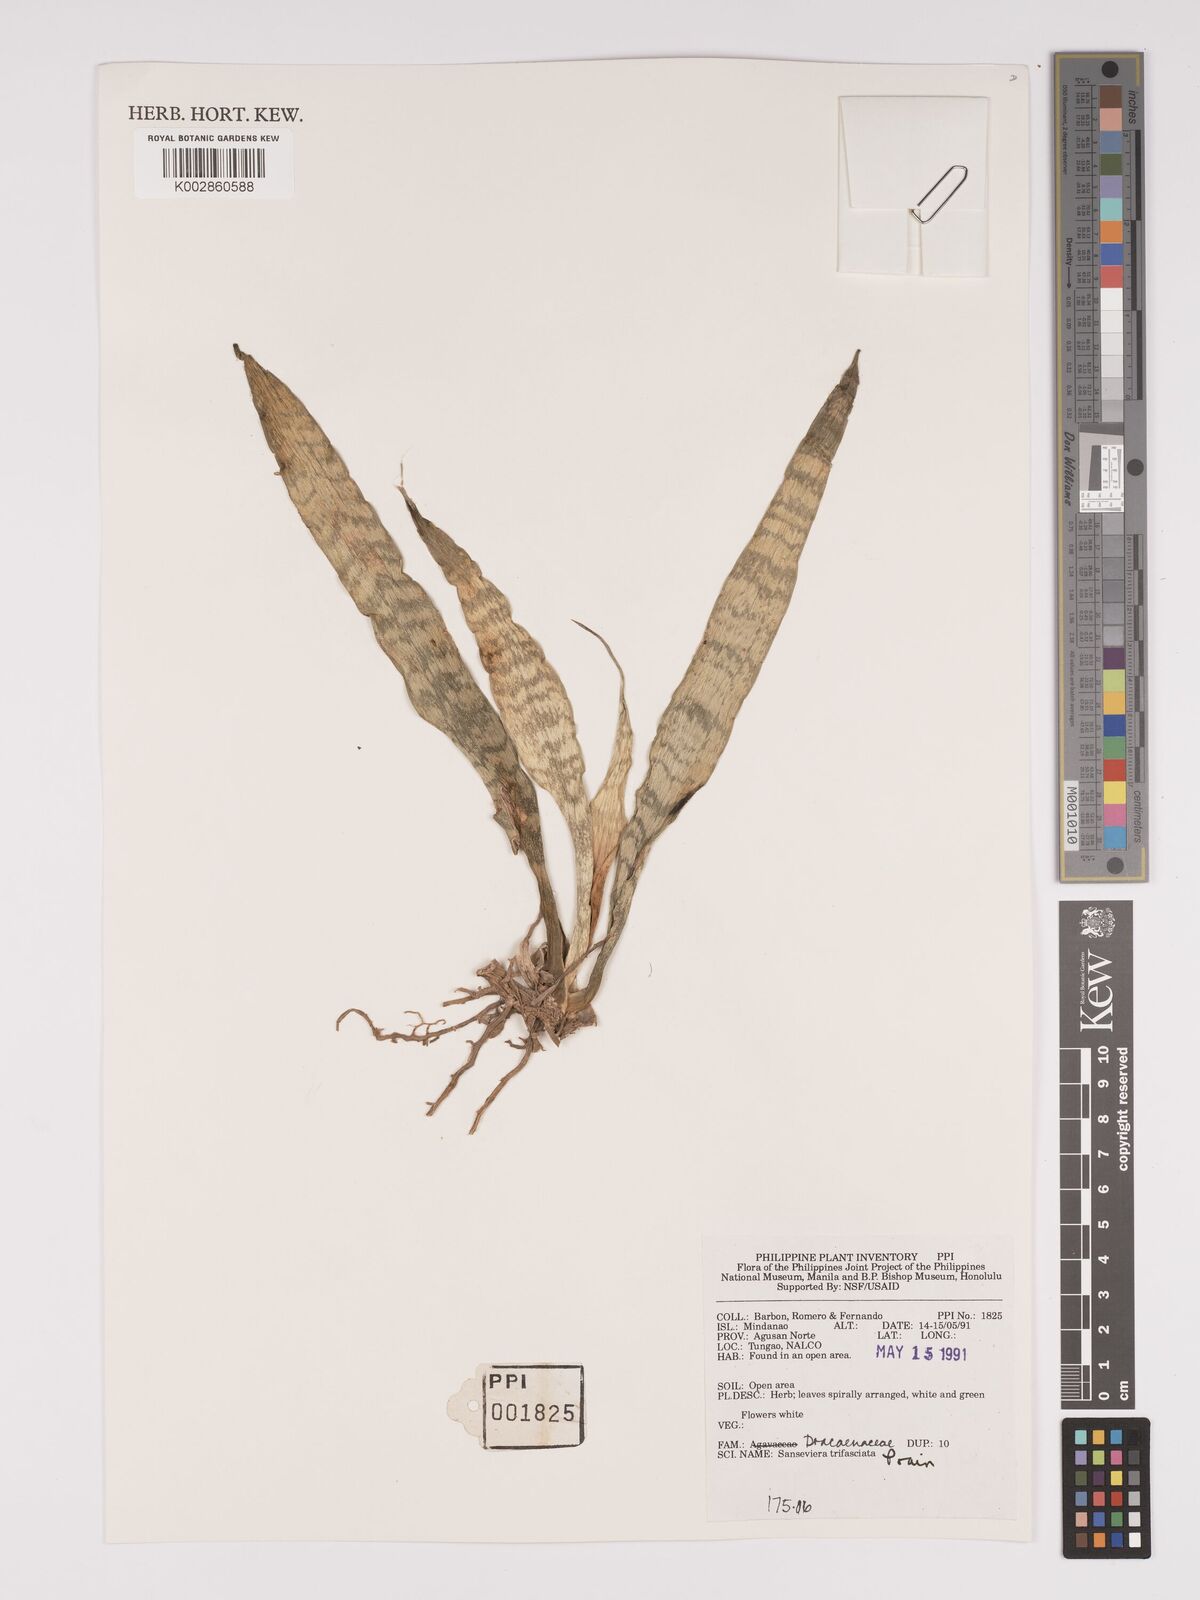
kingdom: Plantae
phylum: Tracheophyta
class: Liliopsida
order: Asparagales
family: Asparagaceae
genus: Dracaena
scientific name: Dracaena trifasciata
